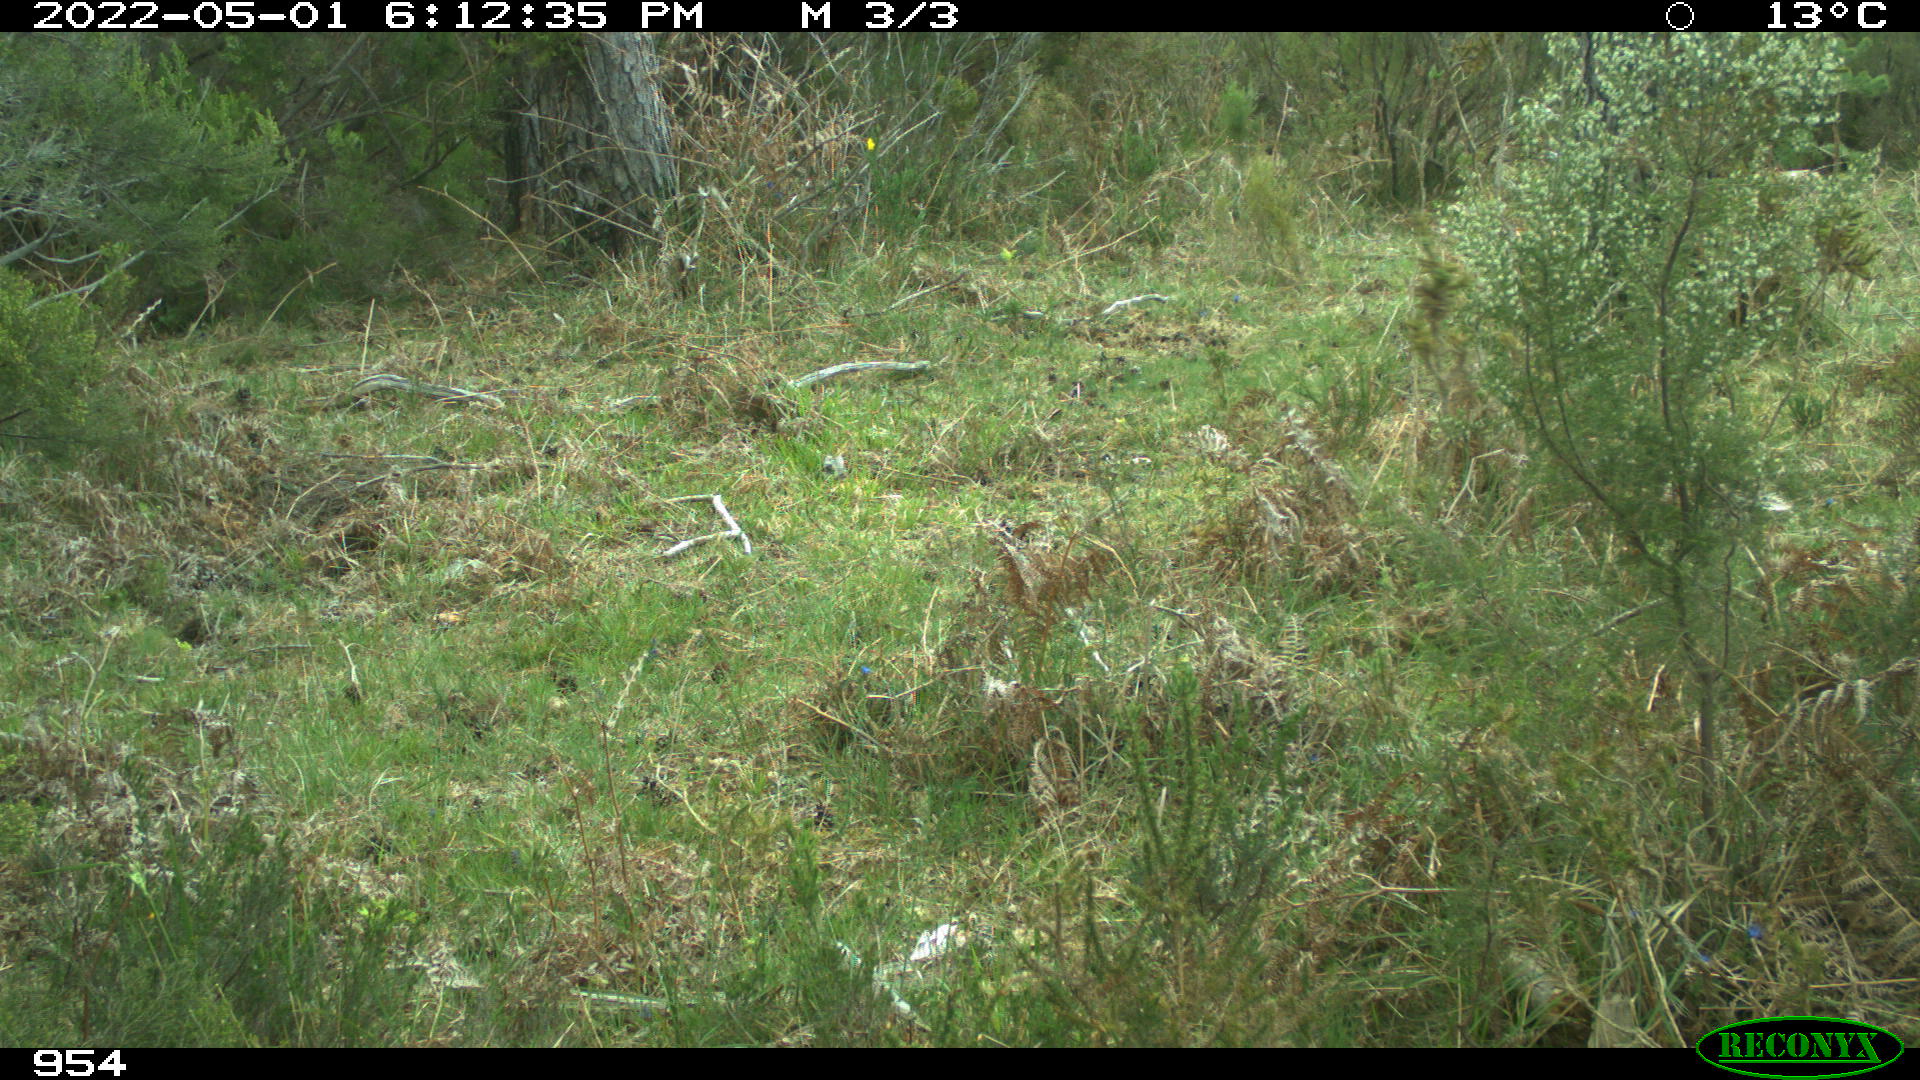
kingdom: Animalia
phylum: Chordata
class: Mammalia
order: Perissodactyla
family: Equidae
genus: Equus
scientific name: Equus caballus
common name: Horse
